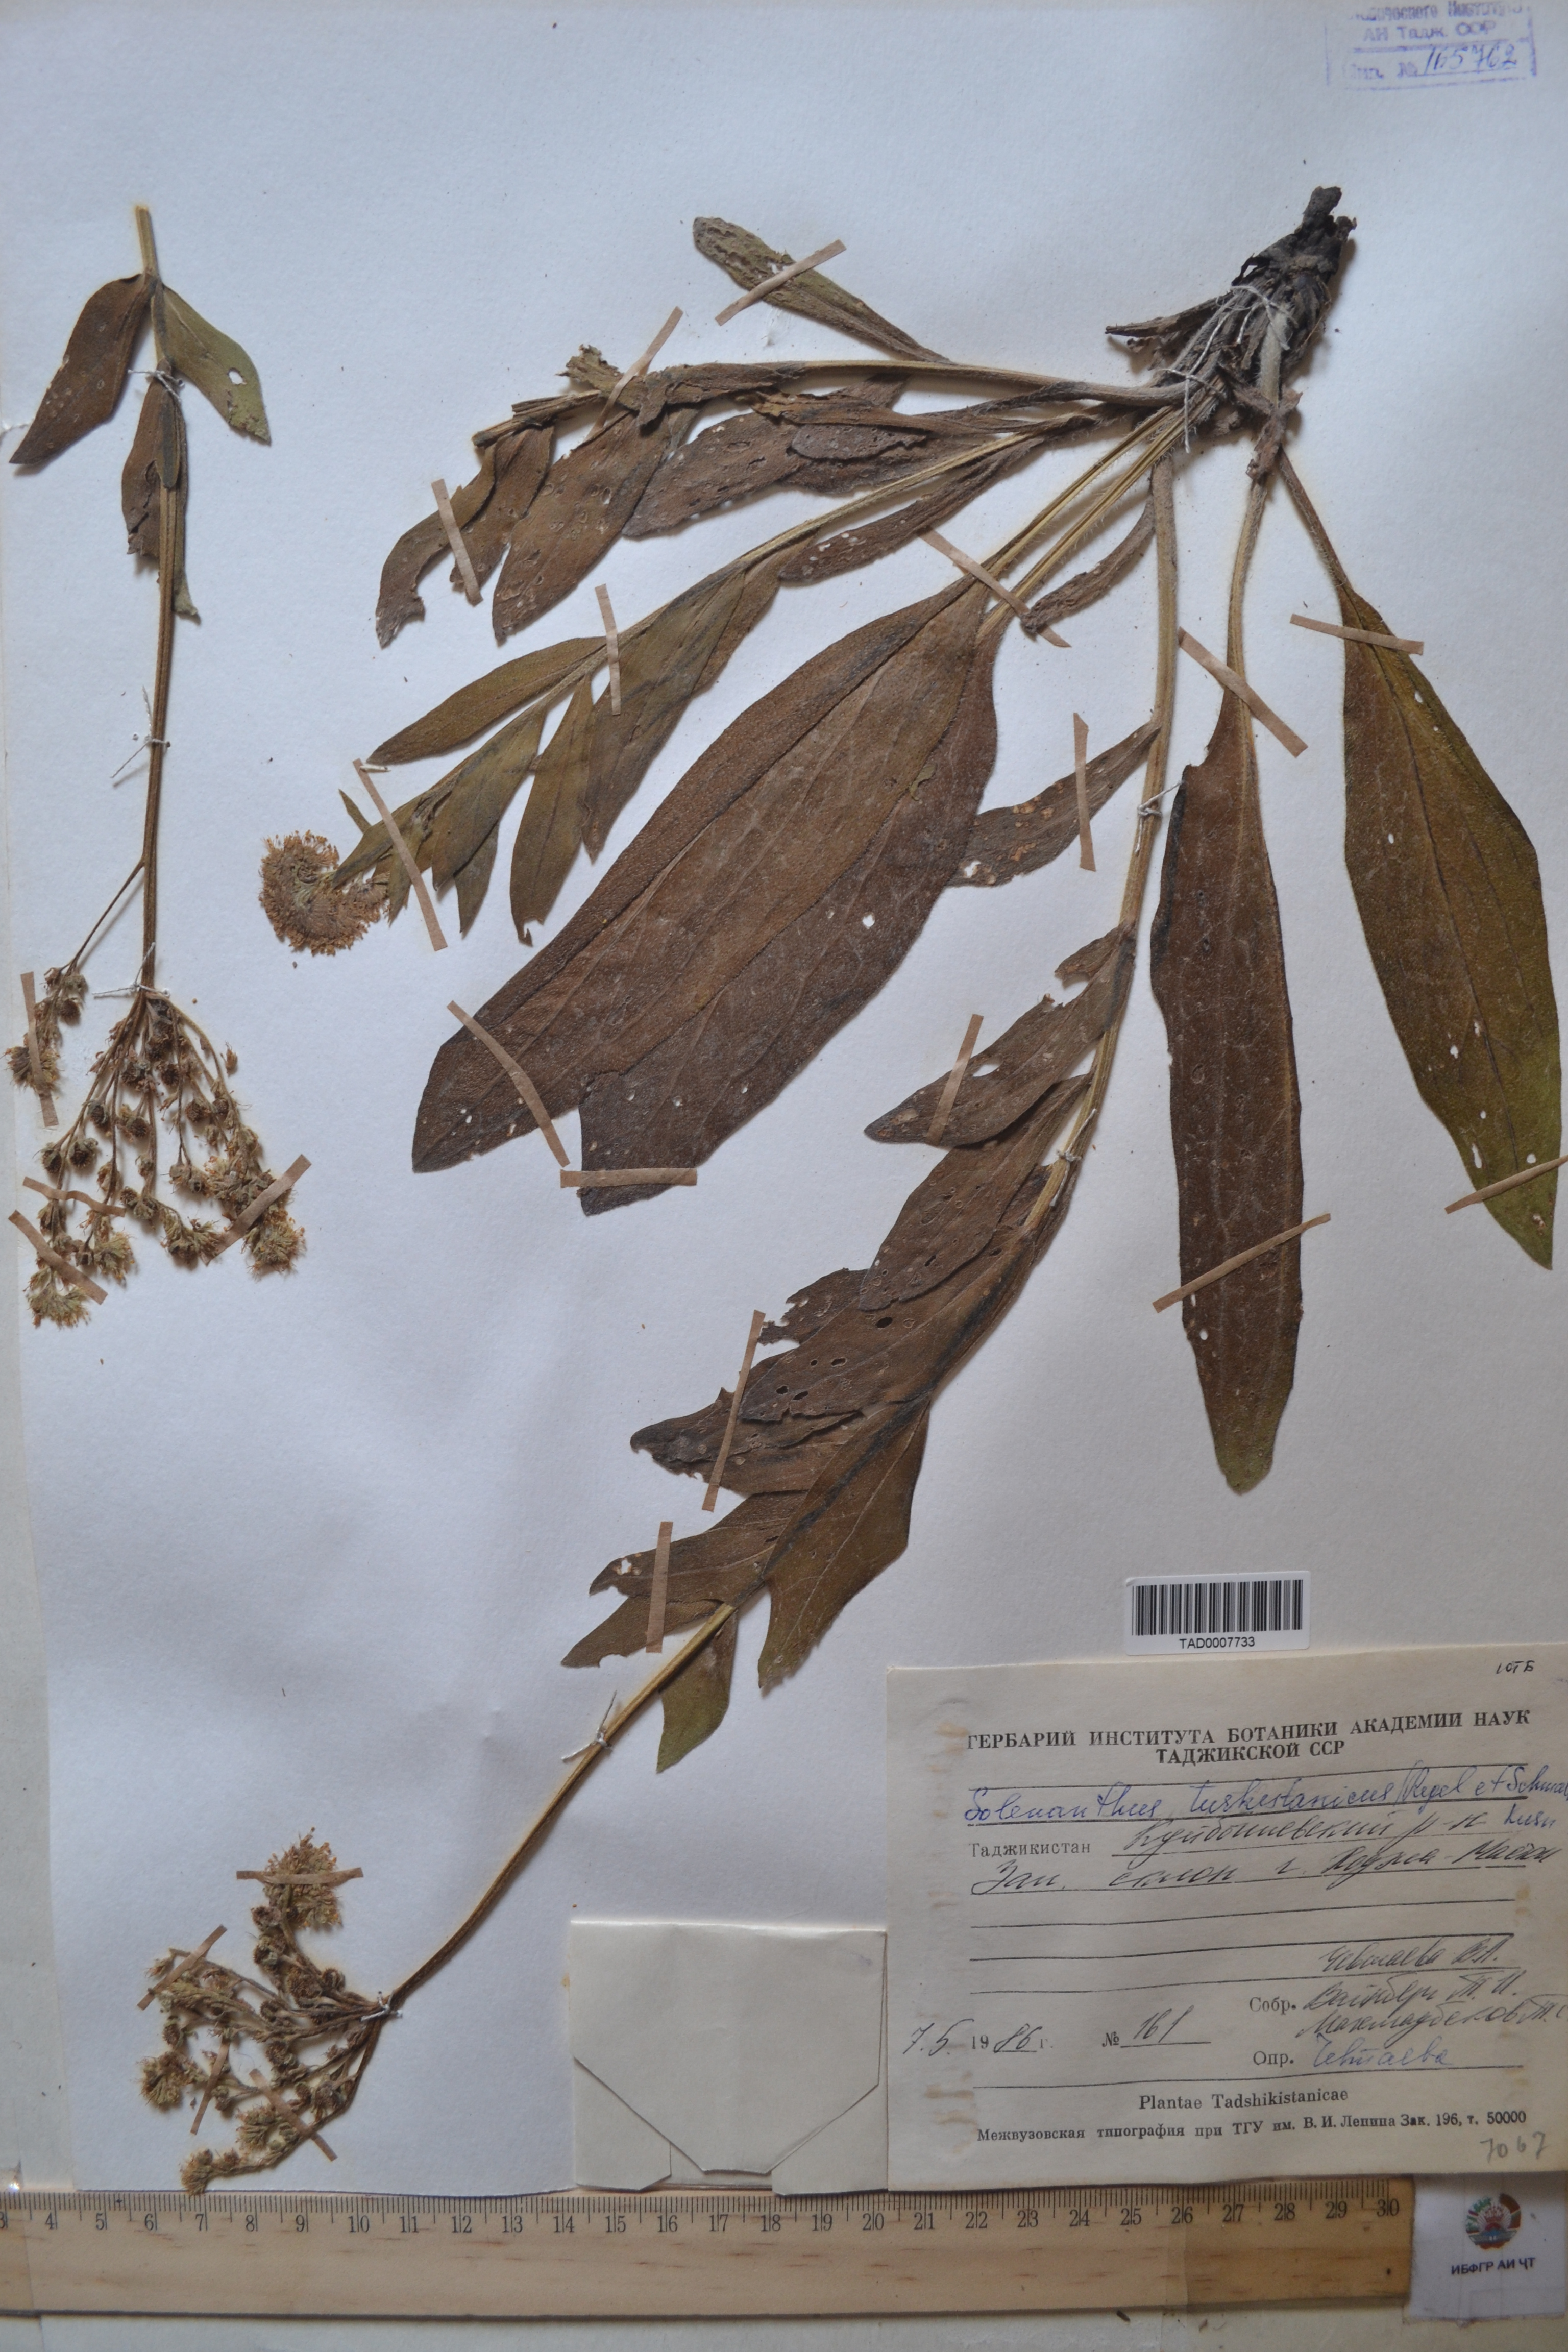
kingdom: Plantae
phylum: Tracheophyta
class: Magnoliopsida
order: Boraginales
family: Boraginaceae
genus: Solenanthus
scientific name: Solenanthus turkestanicus
